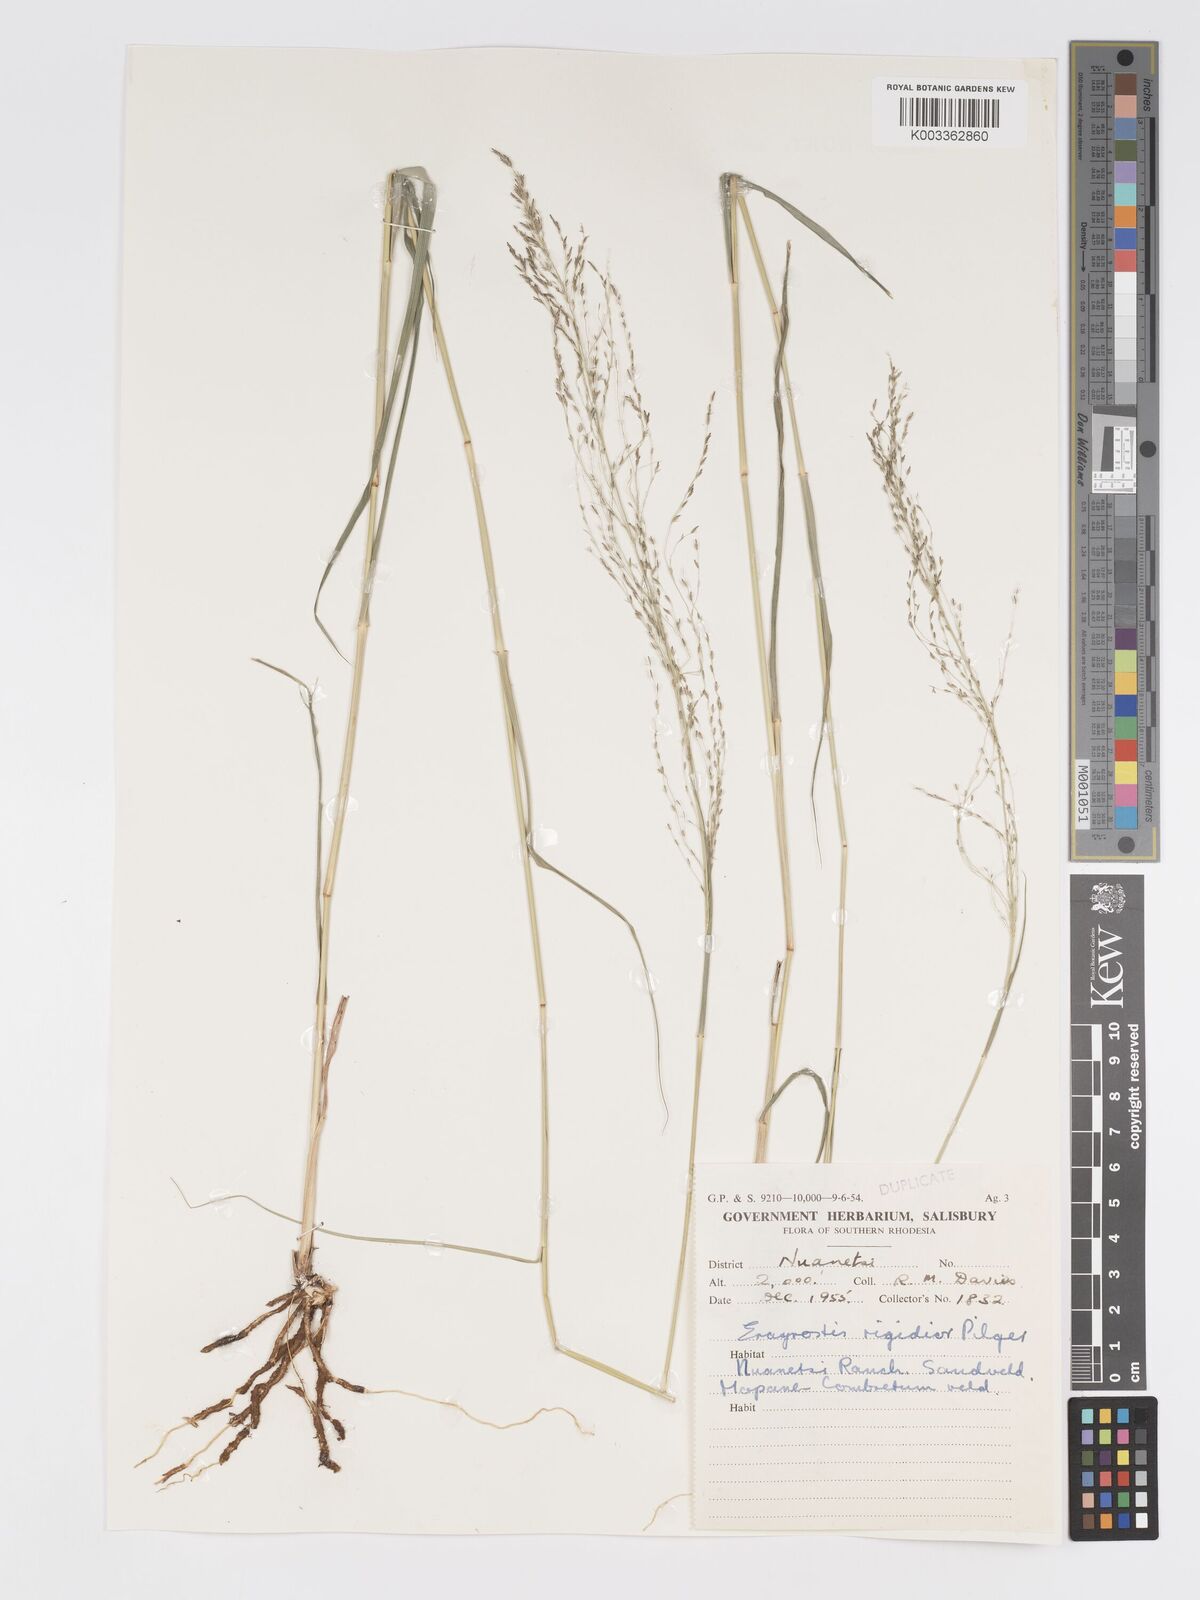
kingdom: Plantae
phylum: Tracheophyta
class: Liliopsida
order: Poales
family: Poaceae
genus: Eragrostis
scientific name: Eragrostis cylindriflora
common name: Cylinderflower lovegrass
